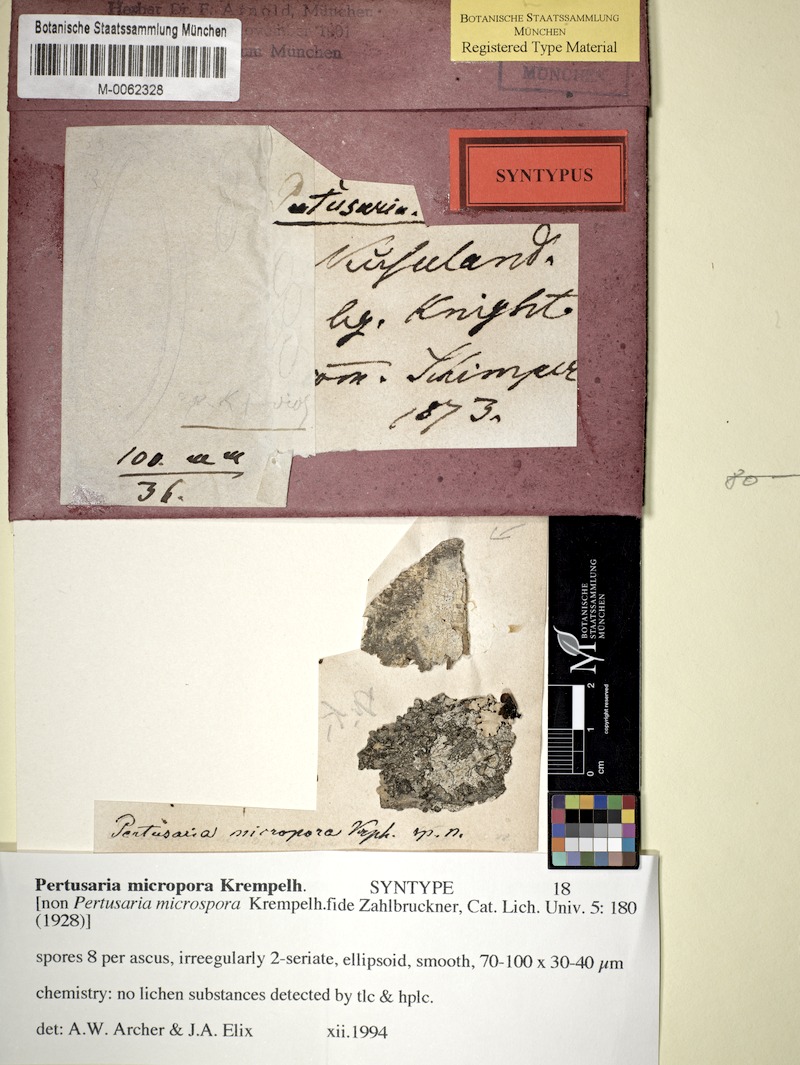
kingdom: Fungi
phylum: Ascomycota
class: Lecanoromycetes
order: Pertusariales
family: Pertusariaceae
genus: Pertusaria
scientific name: Pertusaria
